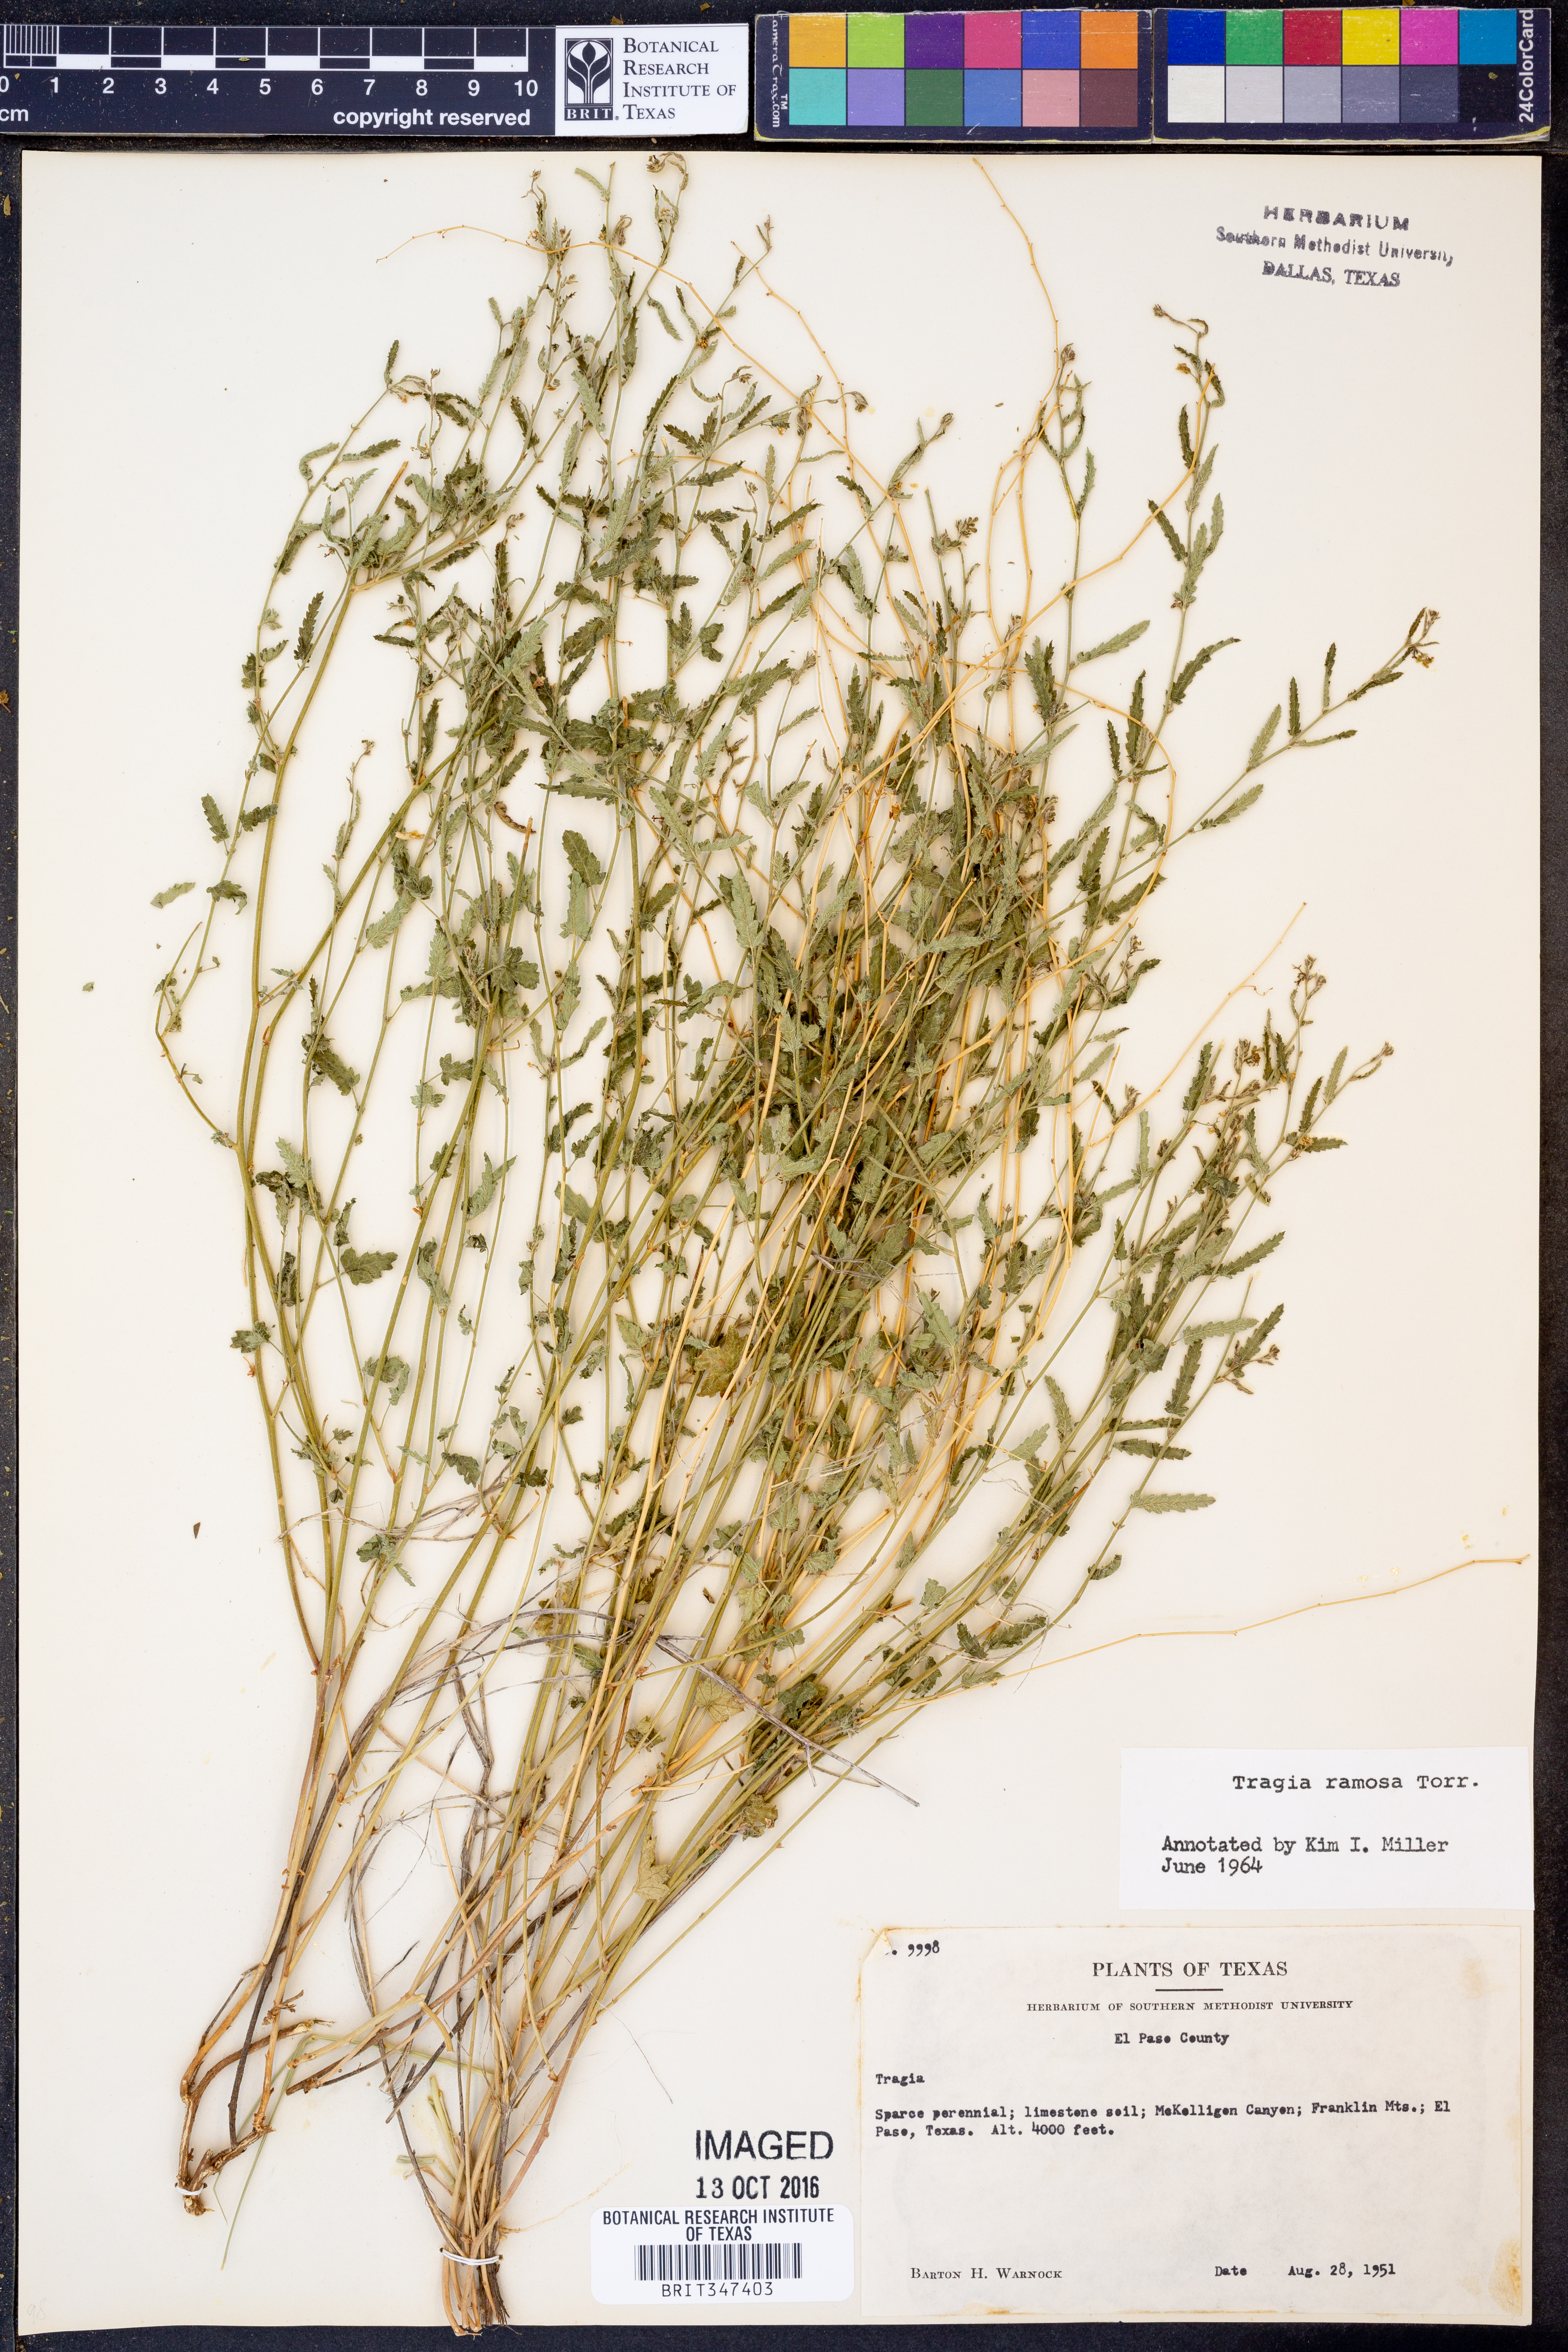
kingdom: Plantae
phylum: Tracheophyta
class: Magnoliopsida
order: Malpighiales
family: Euphorbiaceae
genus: Tragia
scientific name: Tragia ramosa
